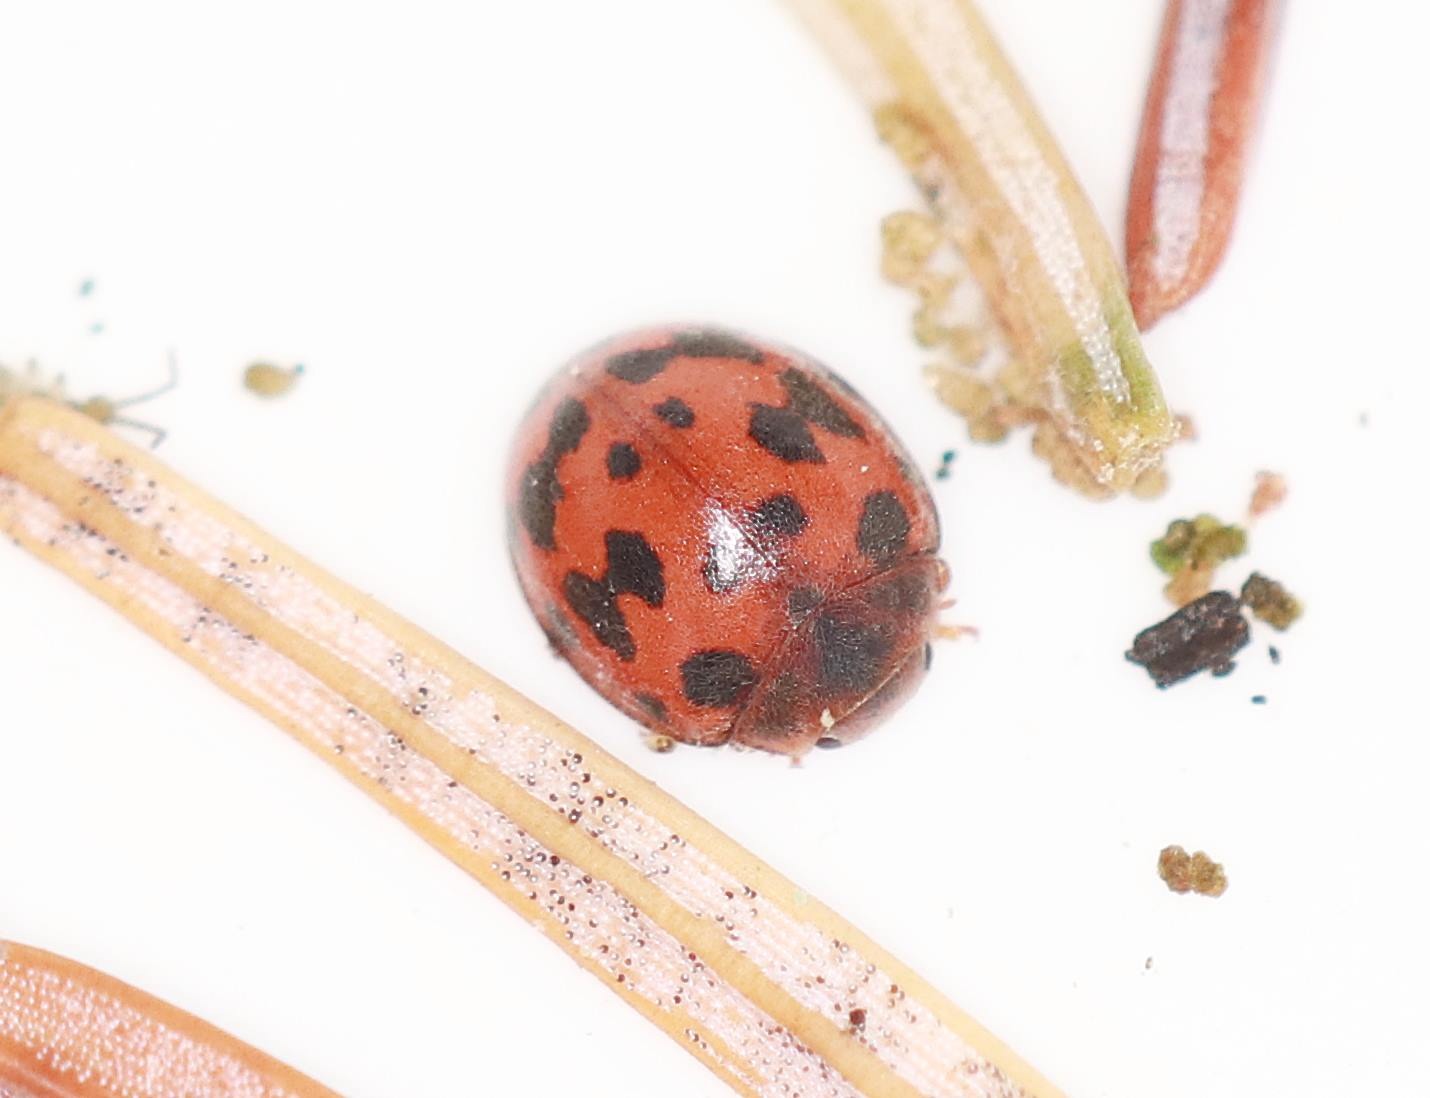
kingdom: Animalia
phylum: Arthropoda
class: Insecta
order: Coleoptera
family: Coccinellidae
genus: Subcoccinella
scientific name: Subcoccinella vigintiquatuorpunctata
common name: Fireogtyveplettet mariehøne
